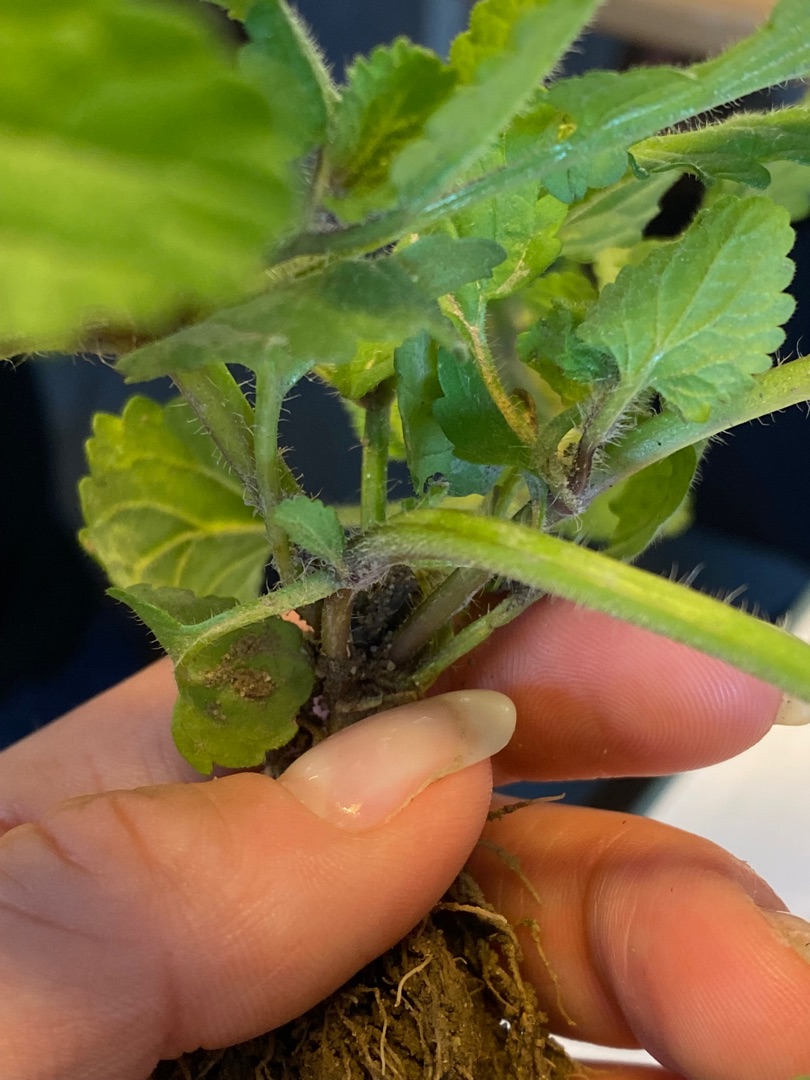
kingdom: Plantae
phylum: Tracheophyta
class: Magnoliopsida
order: Lamiales
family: Lamiaceae
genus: Stachys
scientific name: Stachys arvensis
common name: Ager-galtetand
